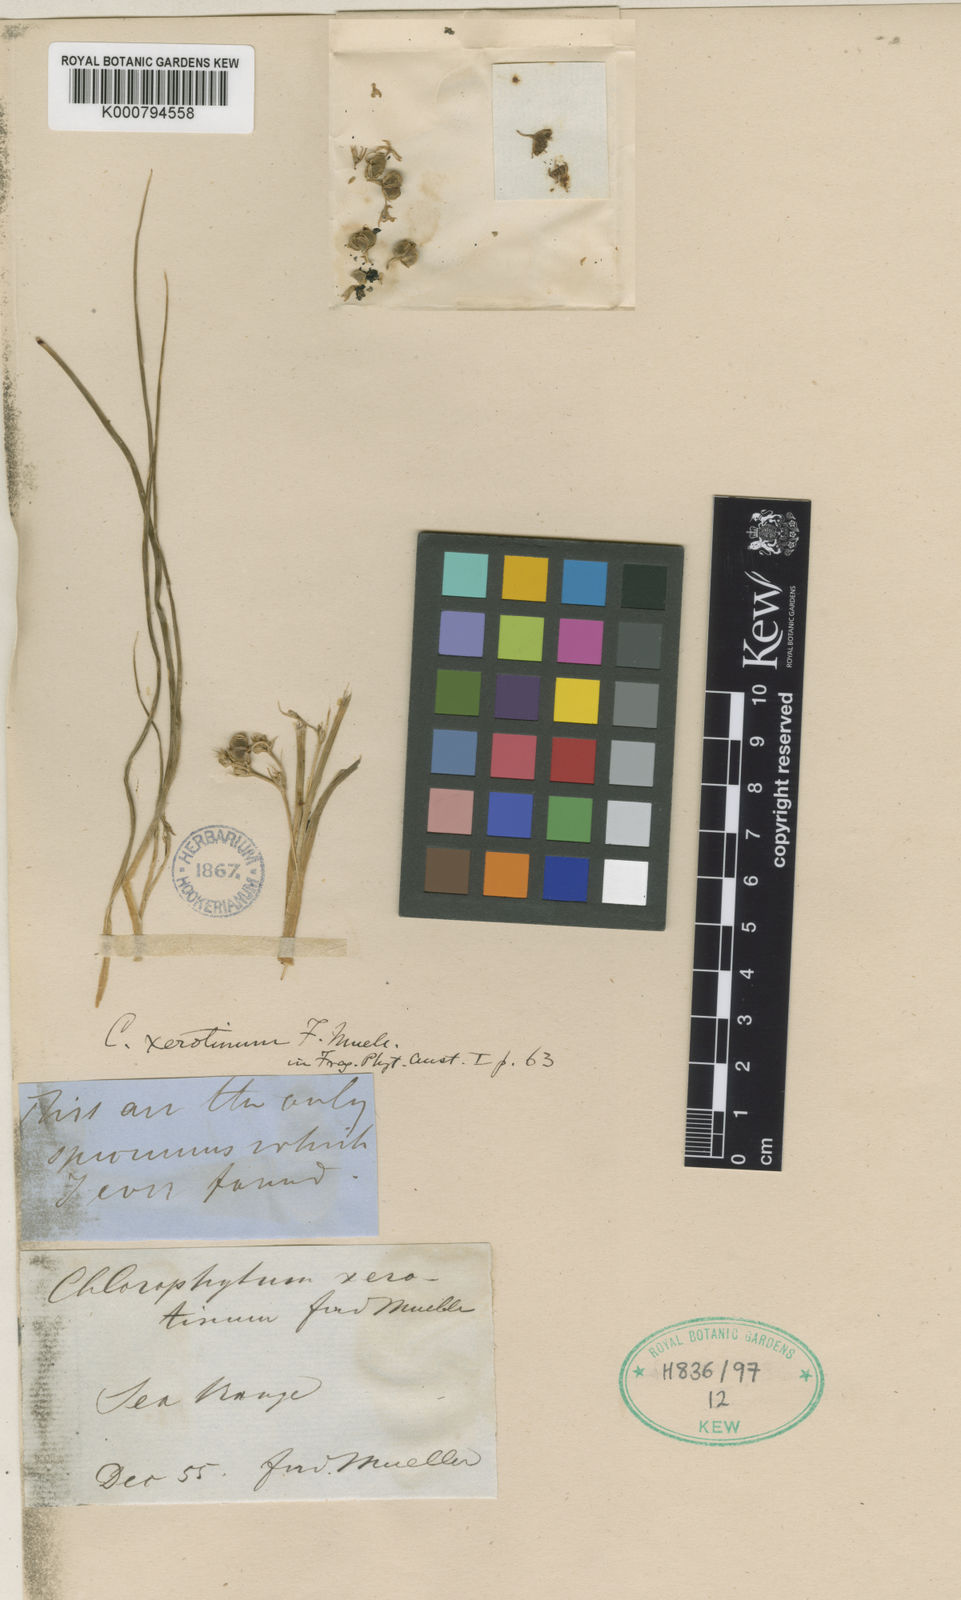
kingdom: Plantae
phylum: Tracheophyta
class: Liliopsida
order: Asparagales
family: Asparagaceae
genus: Chlorophytum
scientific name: Chlorophytum laxum
